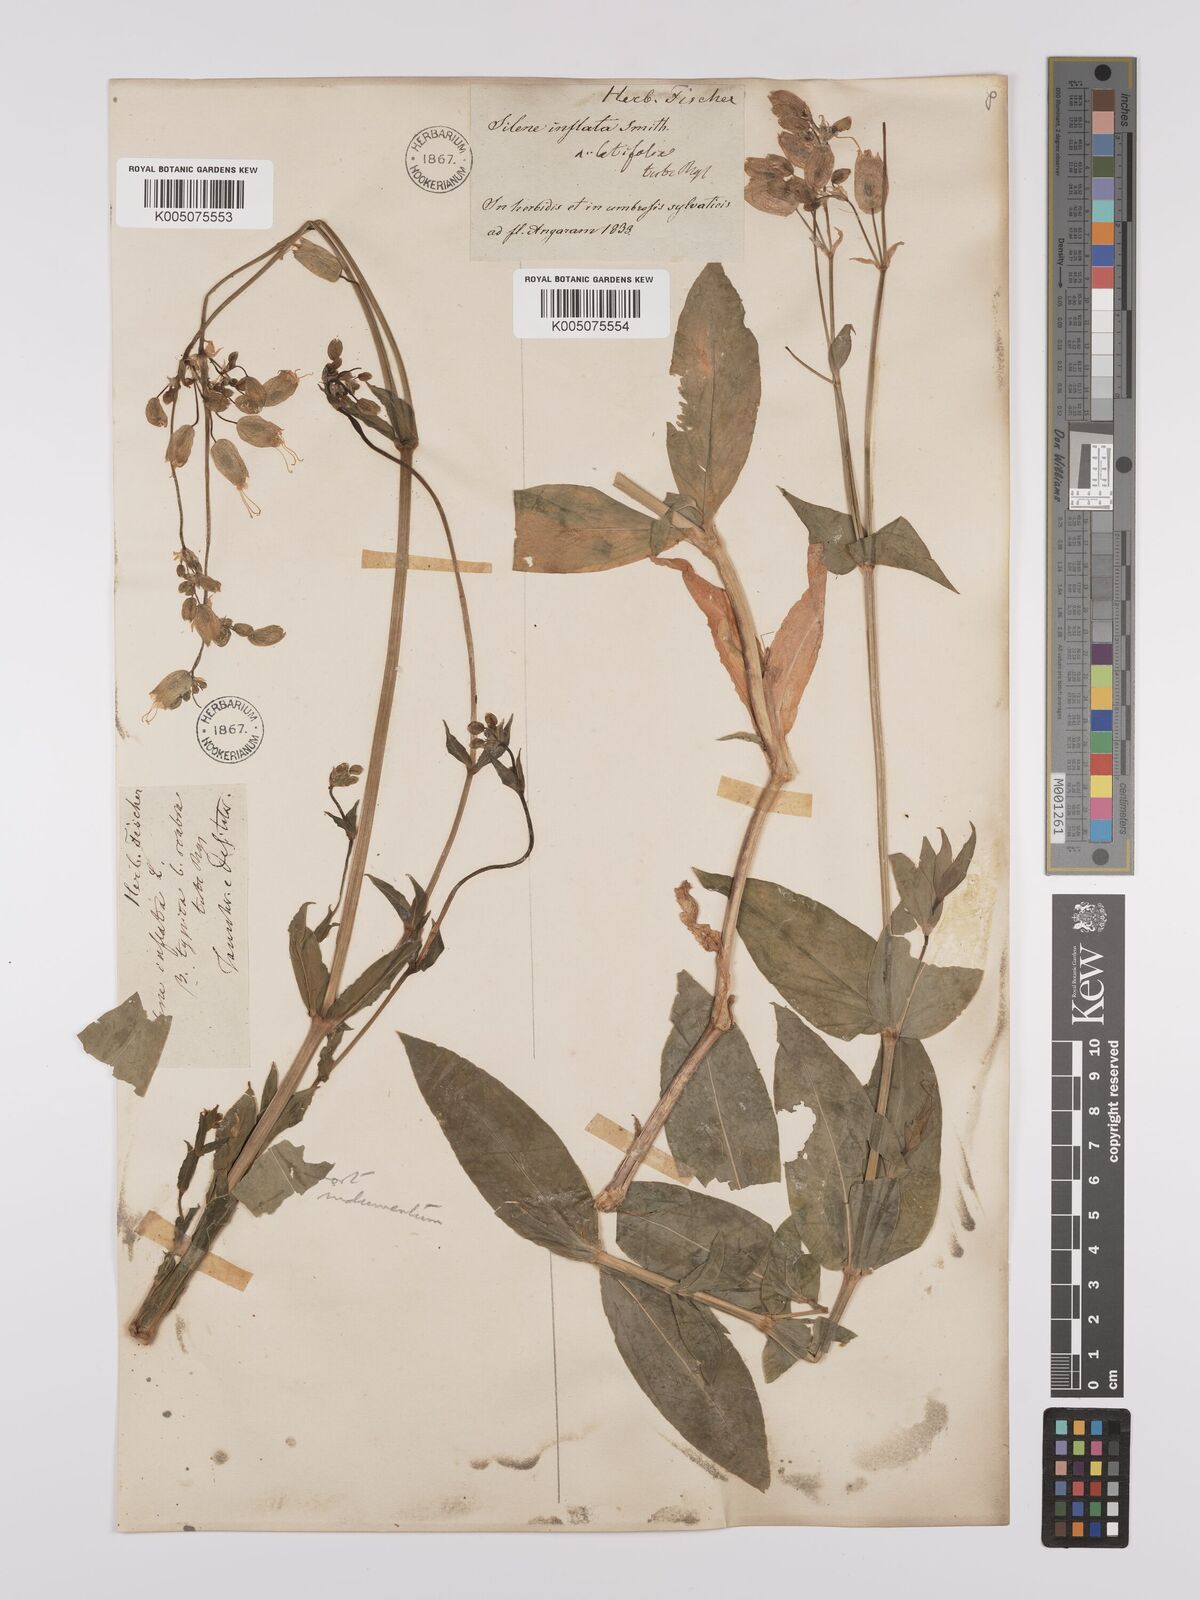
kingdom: Plantae
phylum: Tracheophyta
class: Magnoliopsida
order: Caryophyllales
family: Caryophyllaceae
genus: Silene
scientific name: Silene vulgaris
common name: Bladder campion
